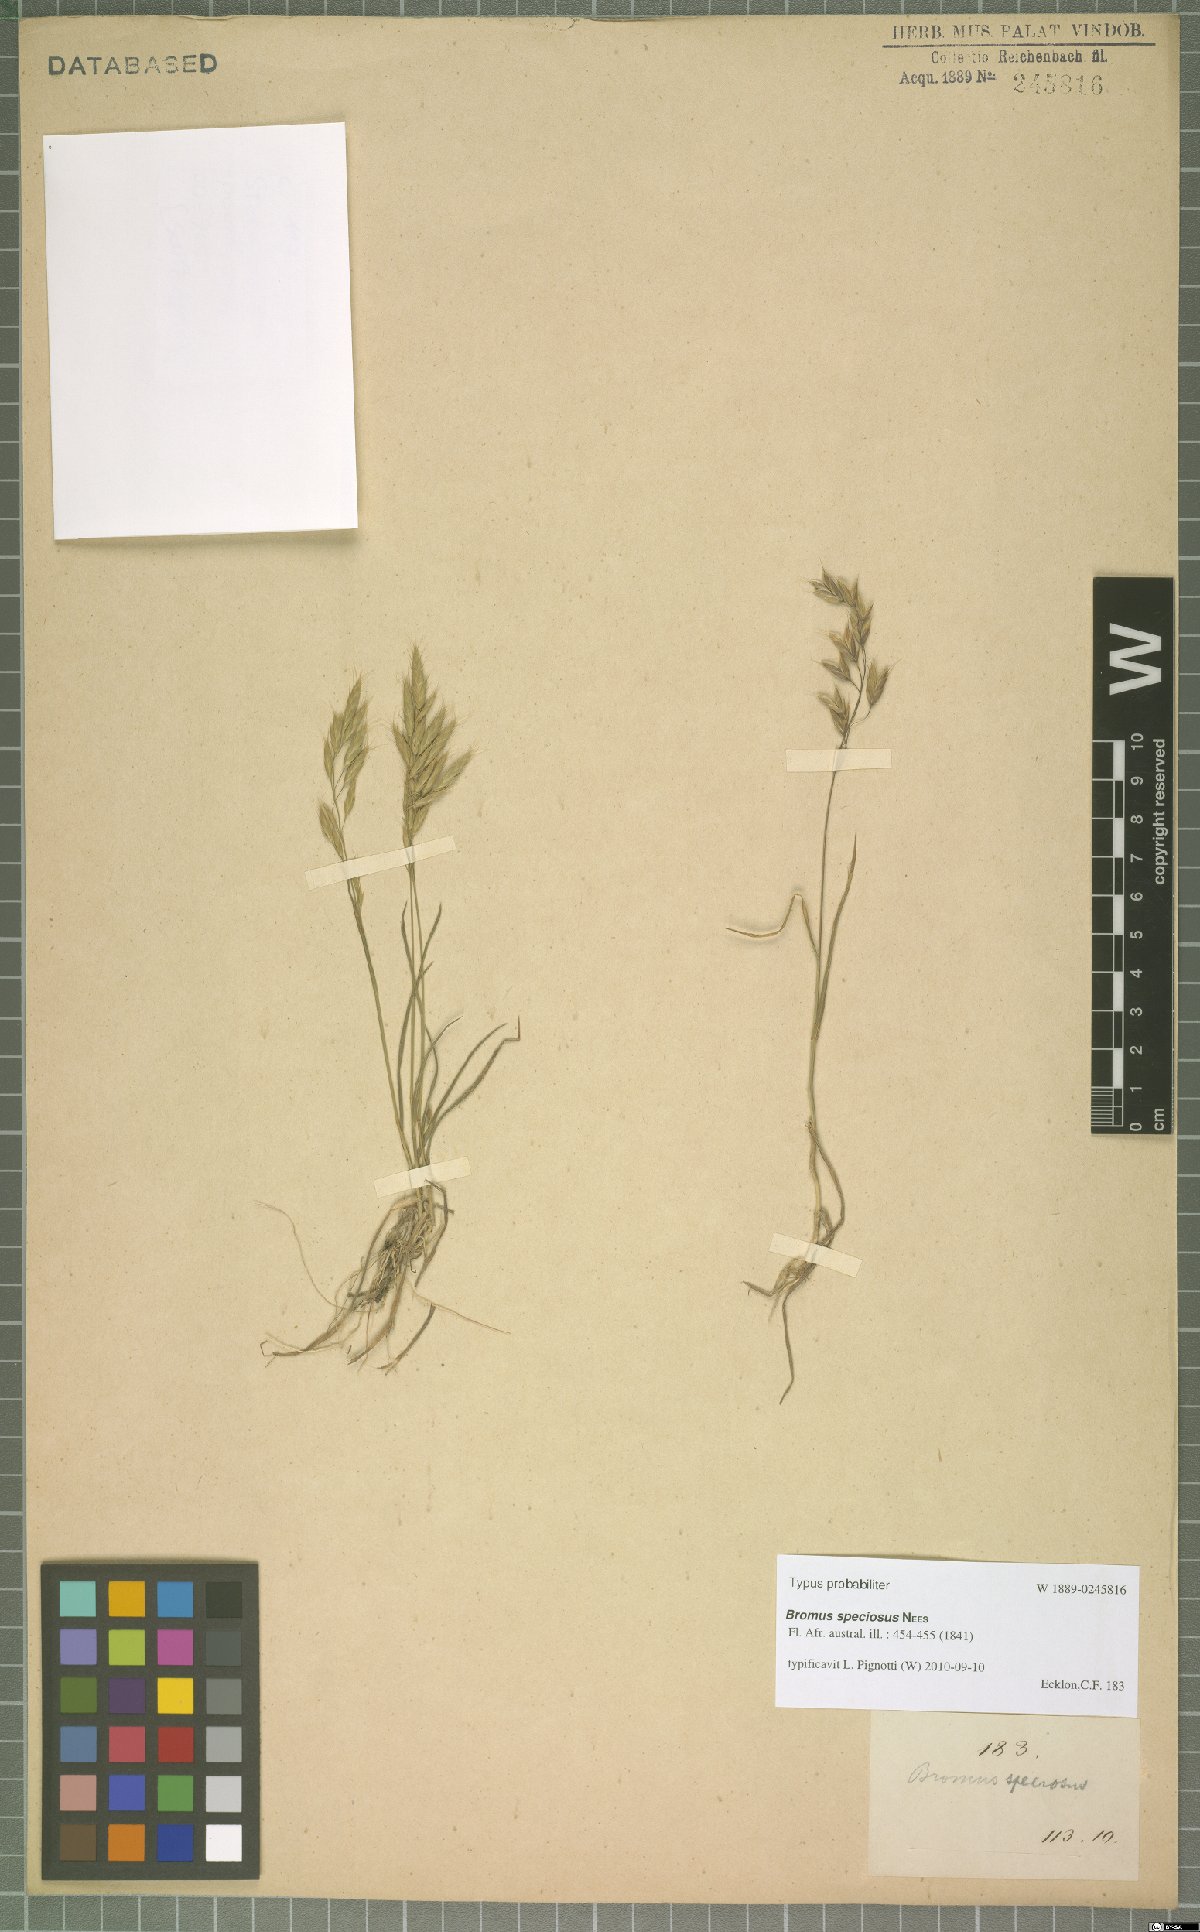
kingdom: Plantae
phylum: Tracheophyta
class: Liliopsida
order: Poales
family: Poaceae
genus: Bromus
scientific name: Bromus speciosus
